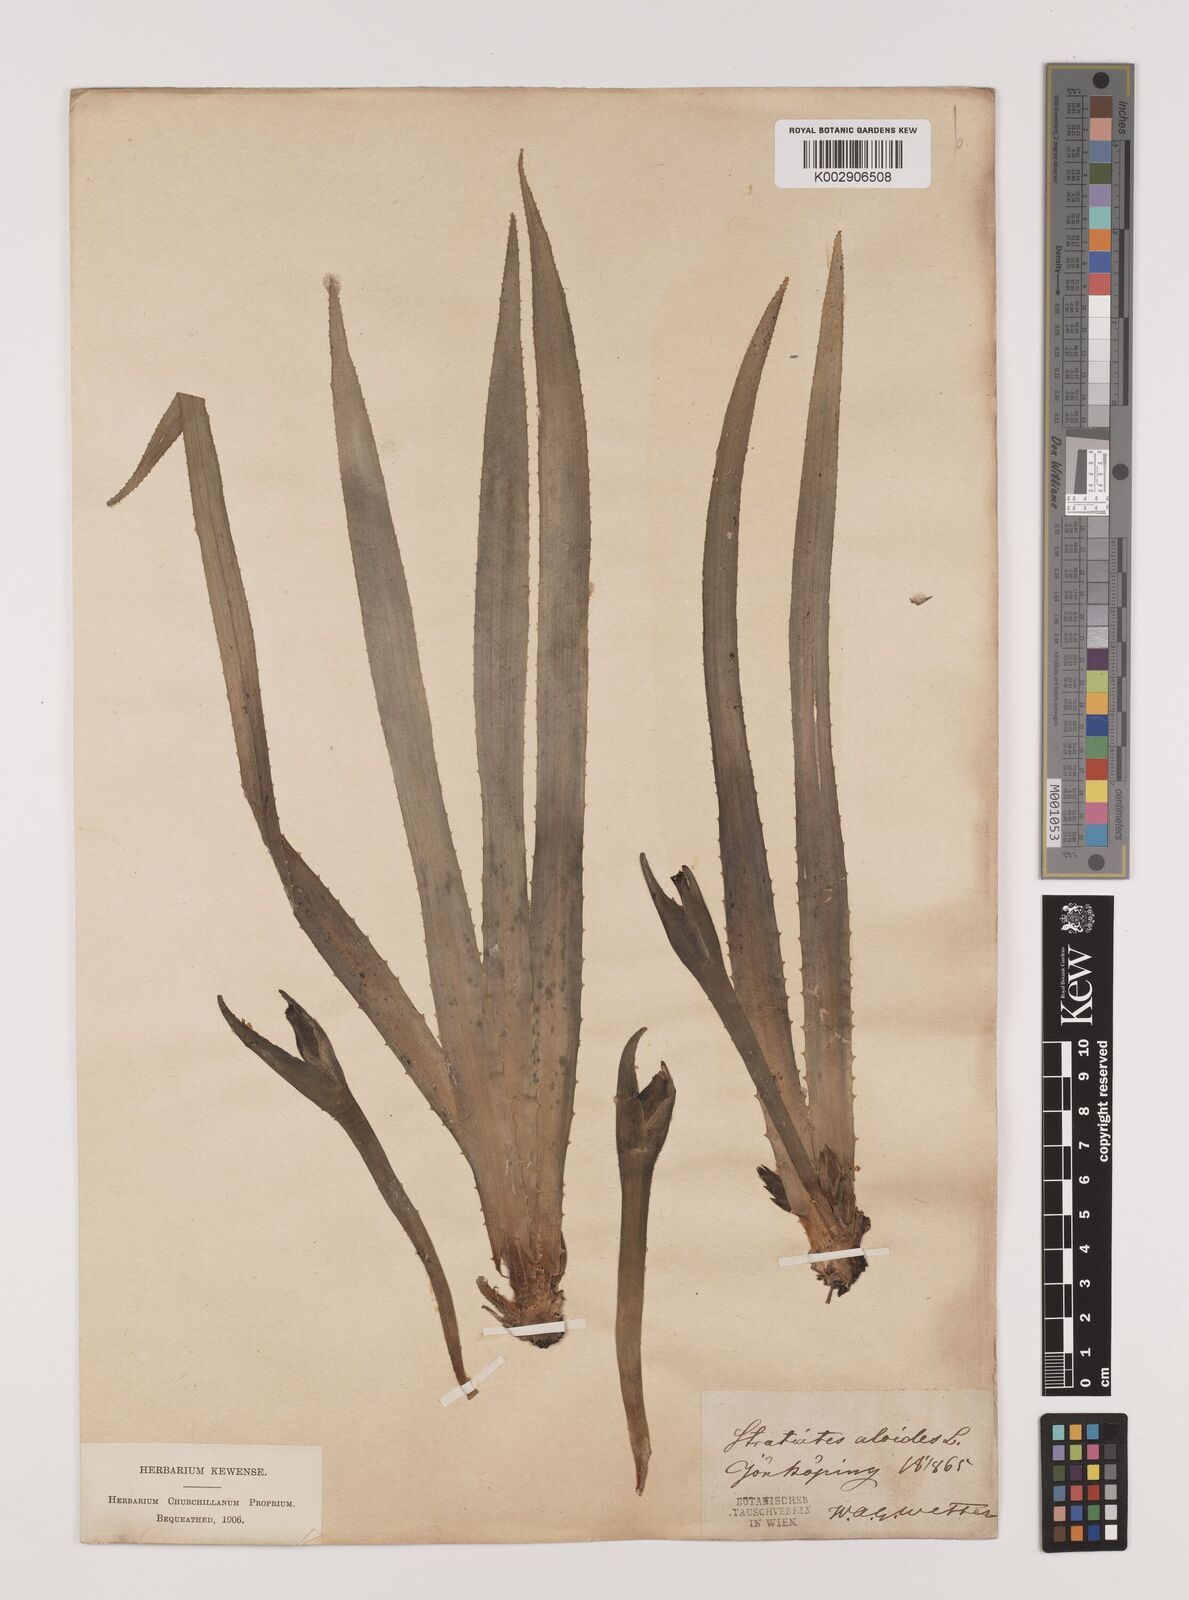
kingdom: Plantae
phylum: Tracheophyta
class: Liliopsida
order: Alismatales
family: Hydrocharitaceae
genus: Stratiotes
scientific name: Stratiotes aloides
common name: Water-soldier
